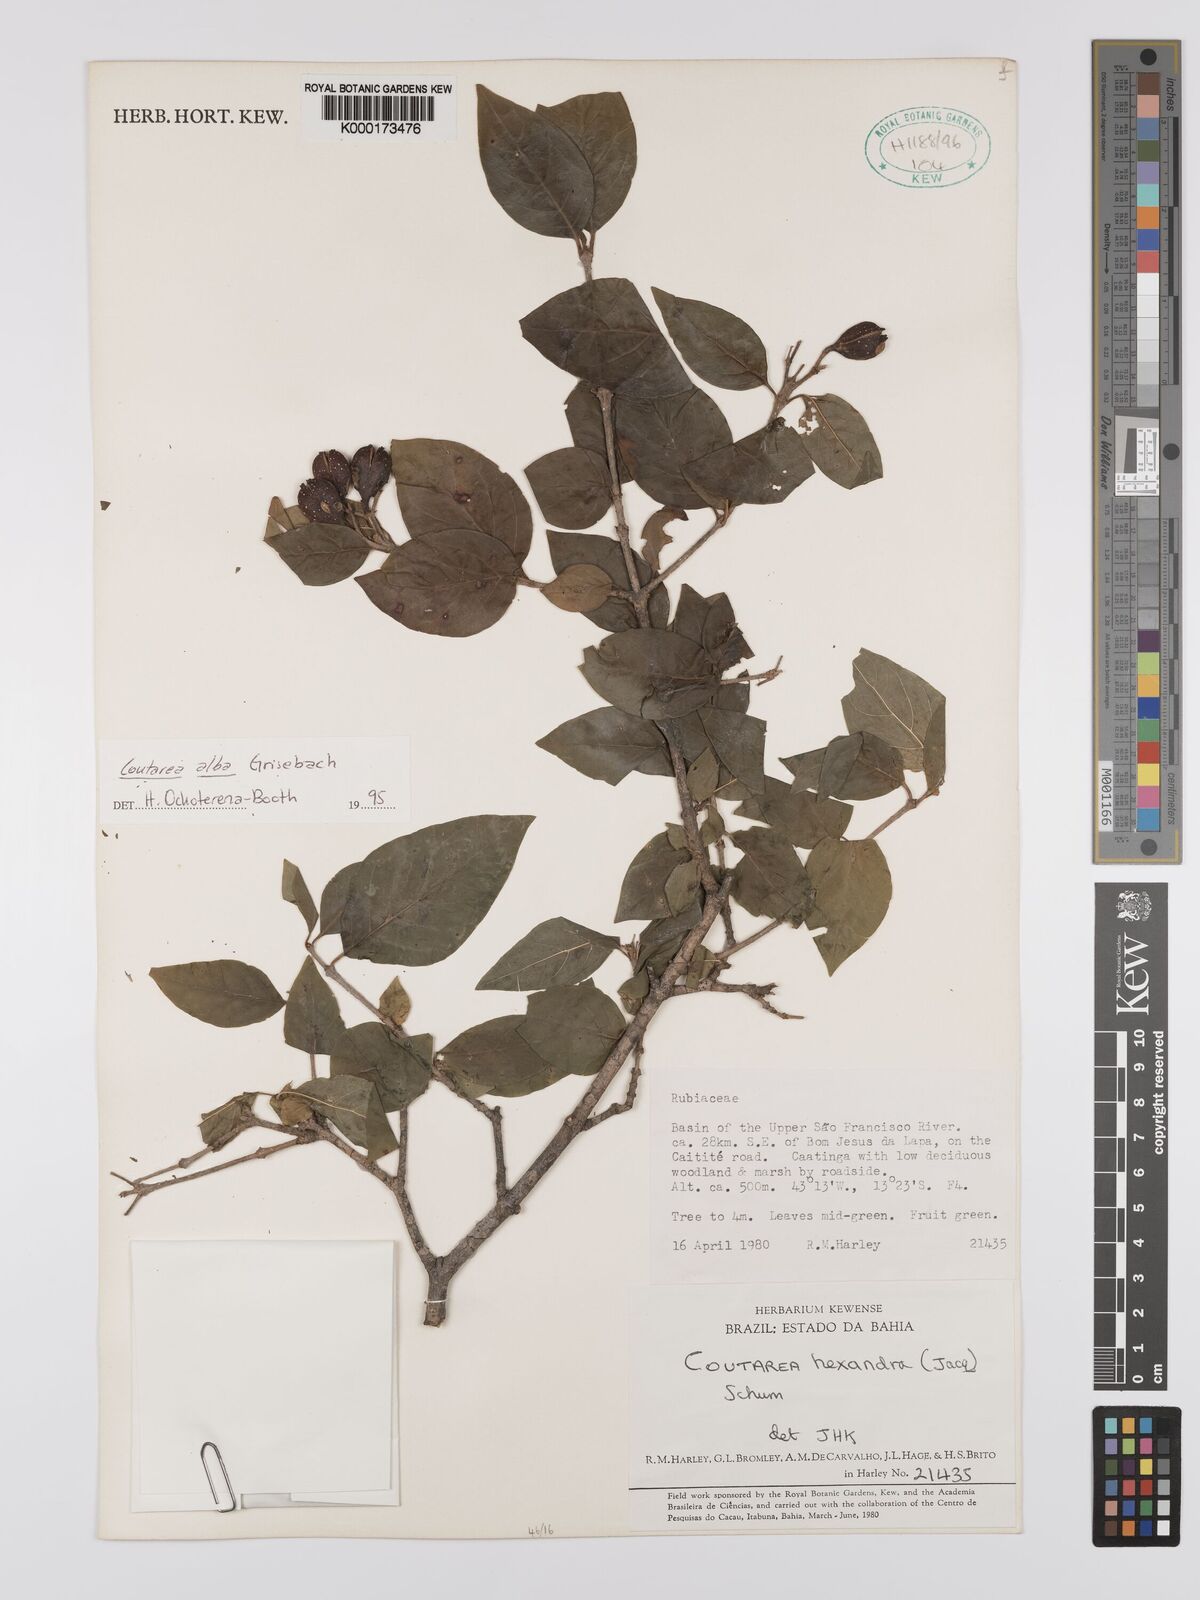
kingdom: Plantae
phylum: Tracheophyta
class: Magnoliopsida
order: Gentianales
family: Rubiaceae
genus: Coutarea
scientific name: Coutarea alba
